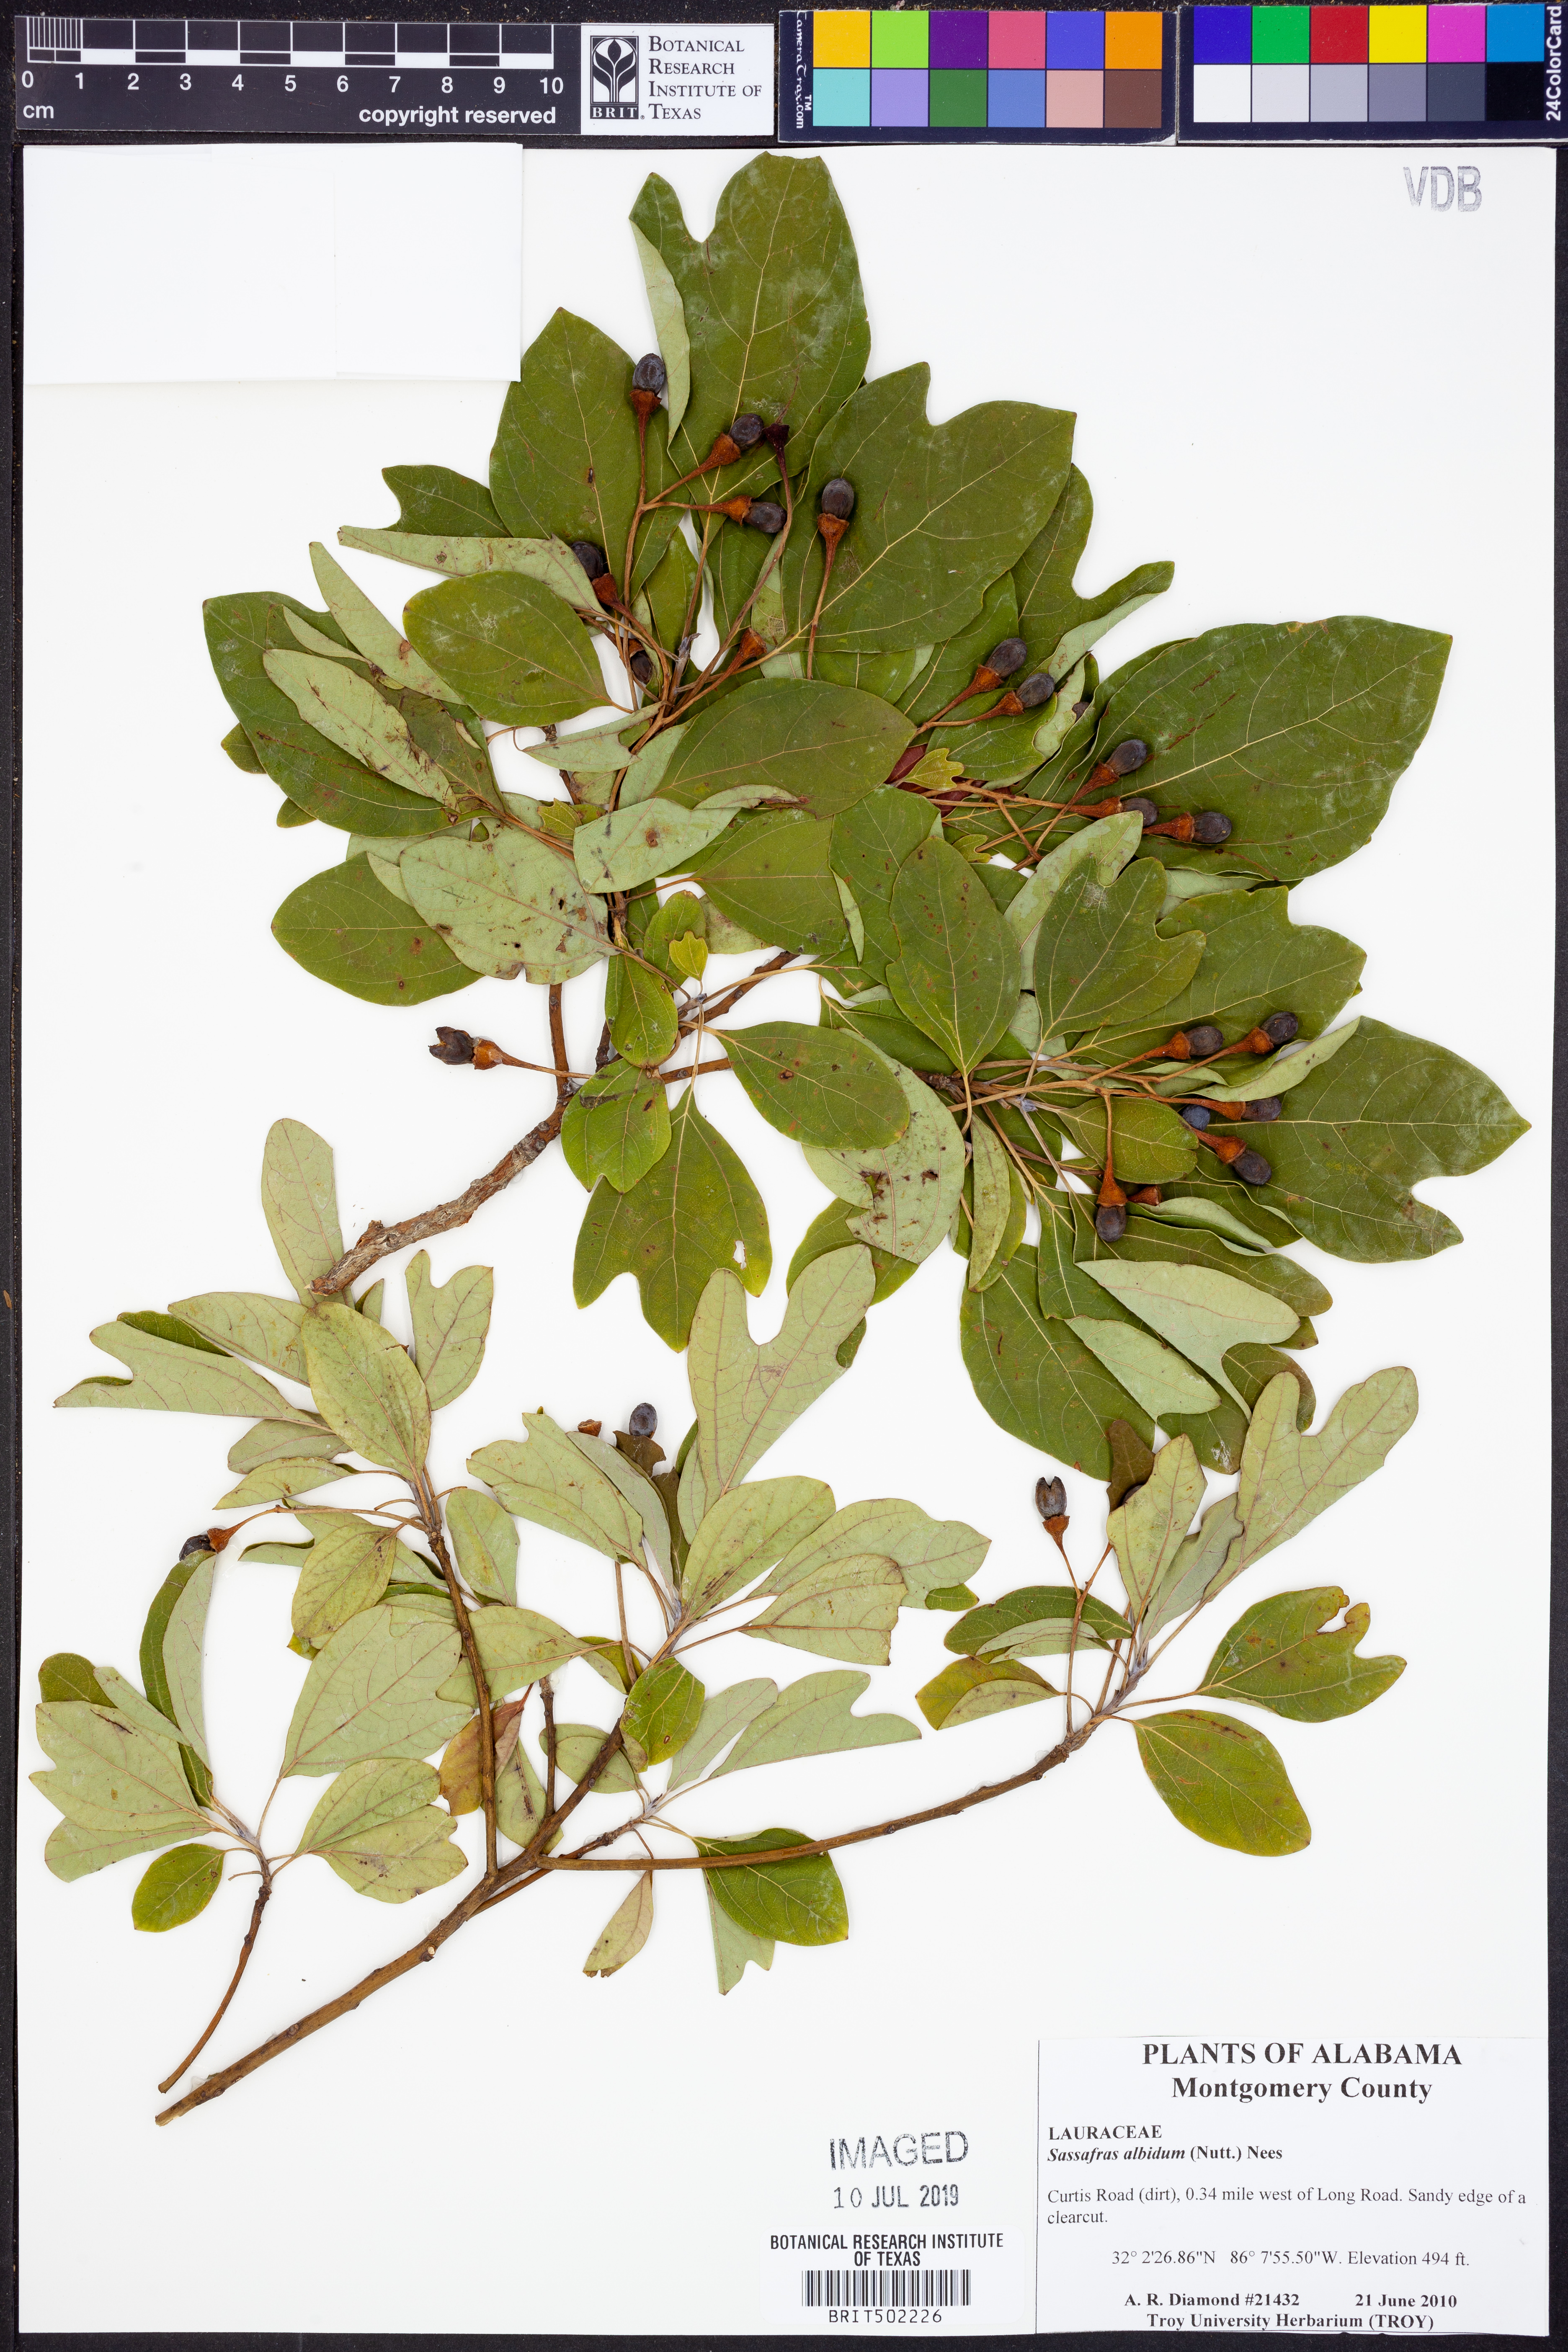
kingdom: Plantae
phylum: Tracheophyta
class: Magnoliopsida
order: Laurales
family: Lauraceae
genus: Sassafras
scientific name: Sassafras albidum
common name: Sassafras
